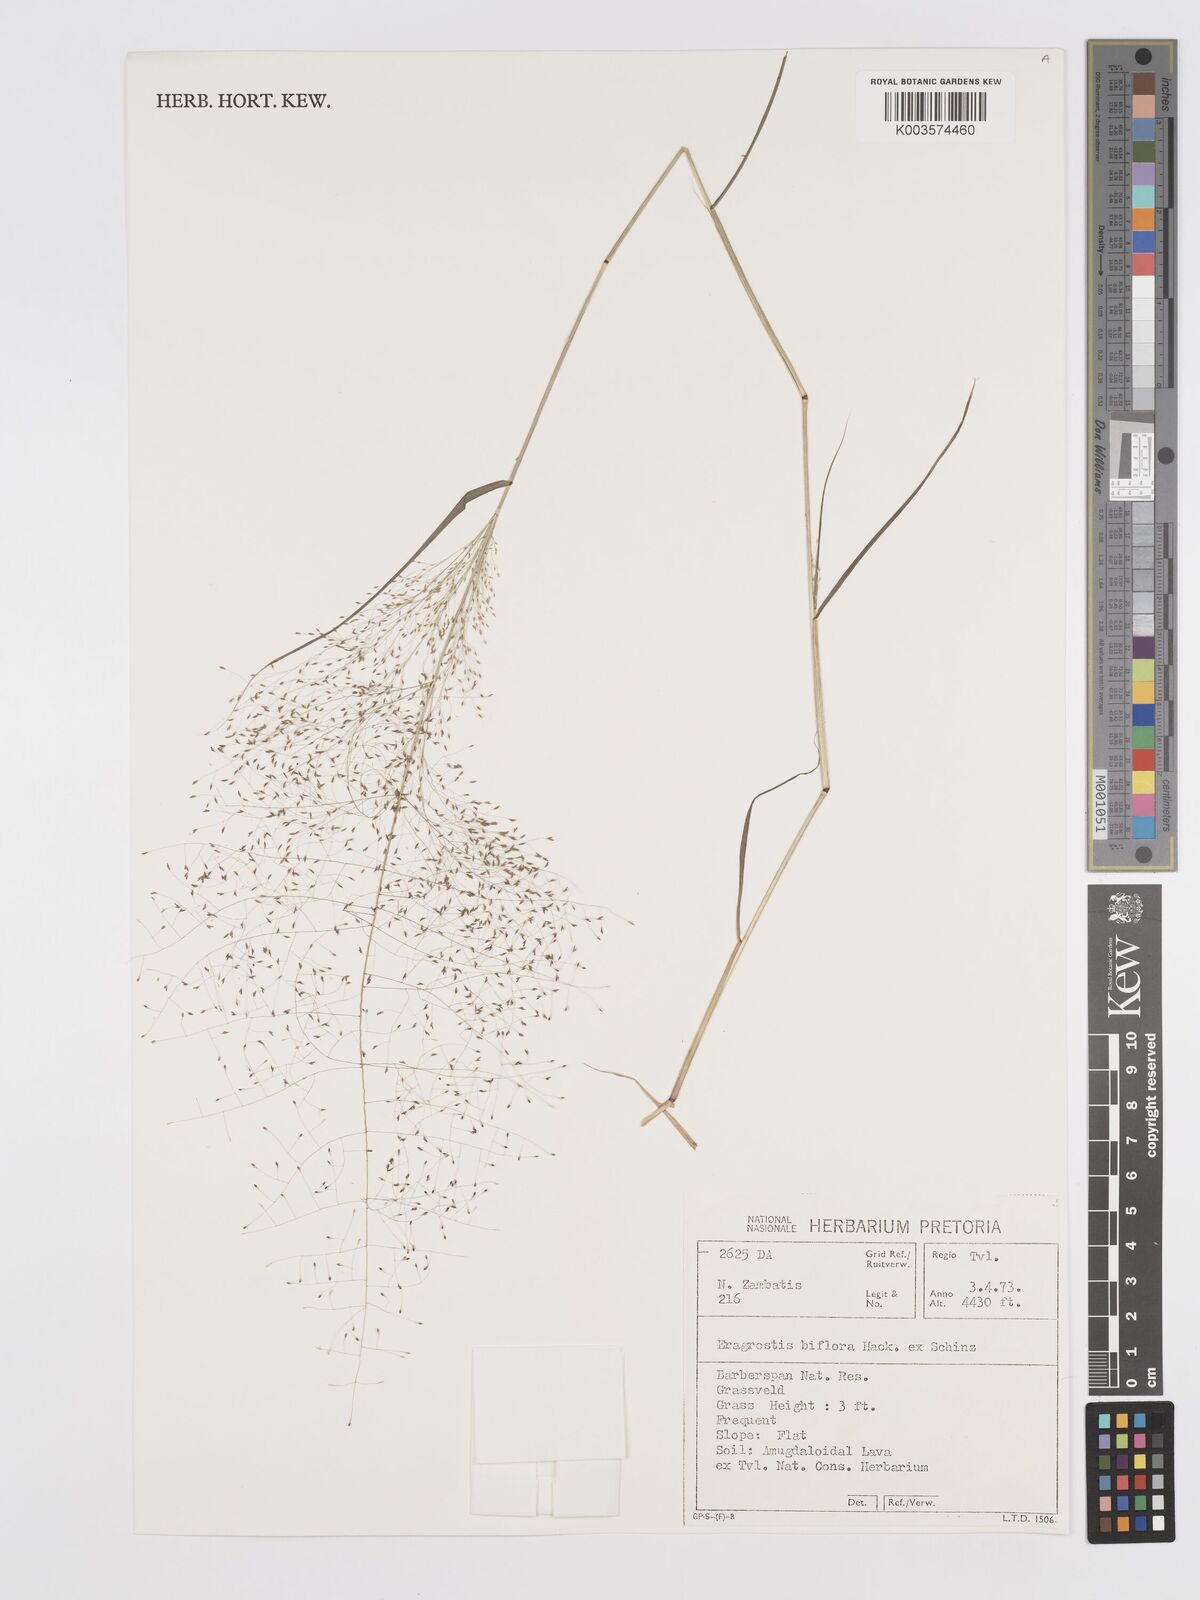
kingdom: Plantae
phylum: Tracheophyta
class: Liliopsida
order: Poales
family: Poaceae
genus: Eragrostis
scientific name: Eragrostis biflora
